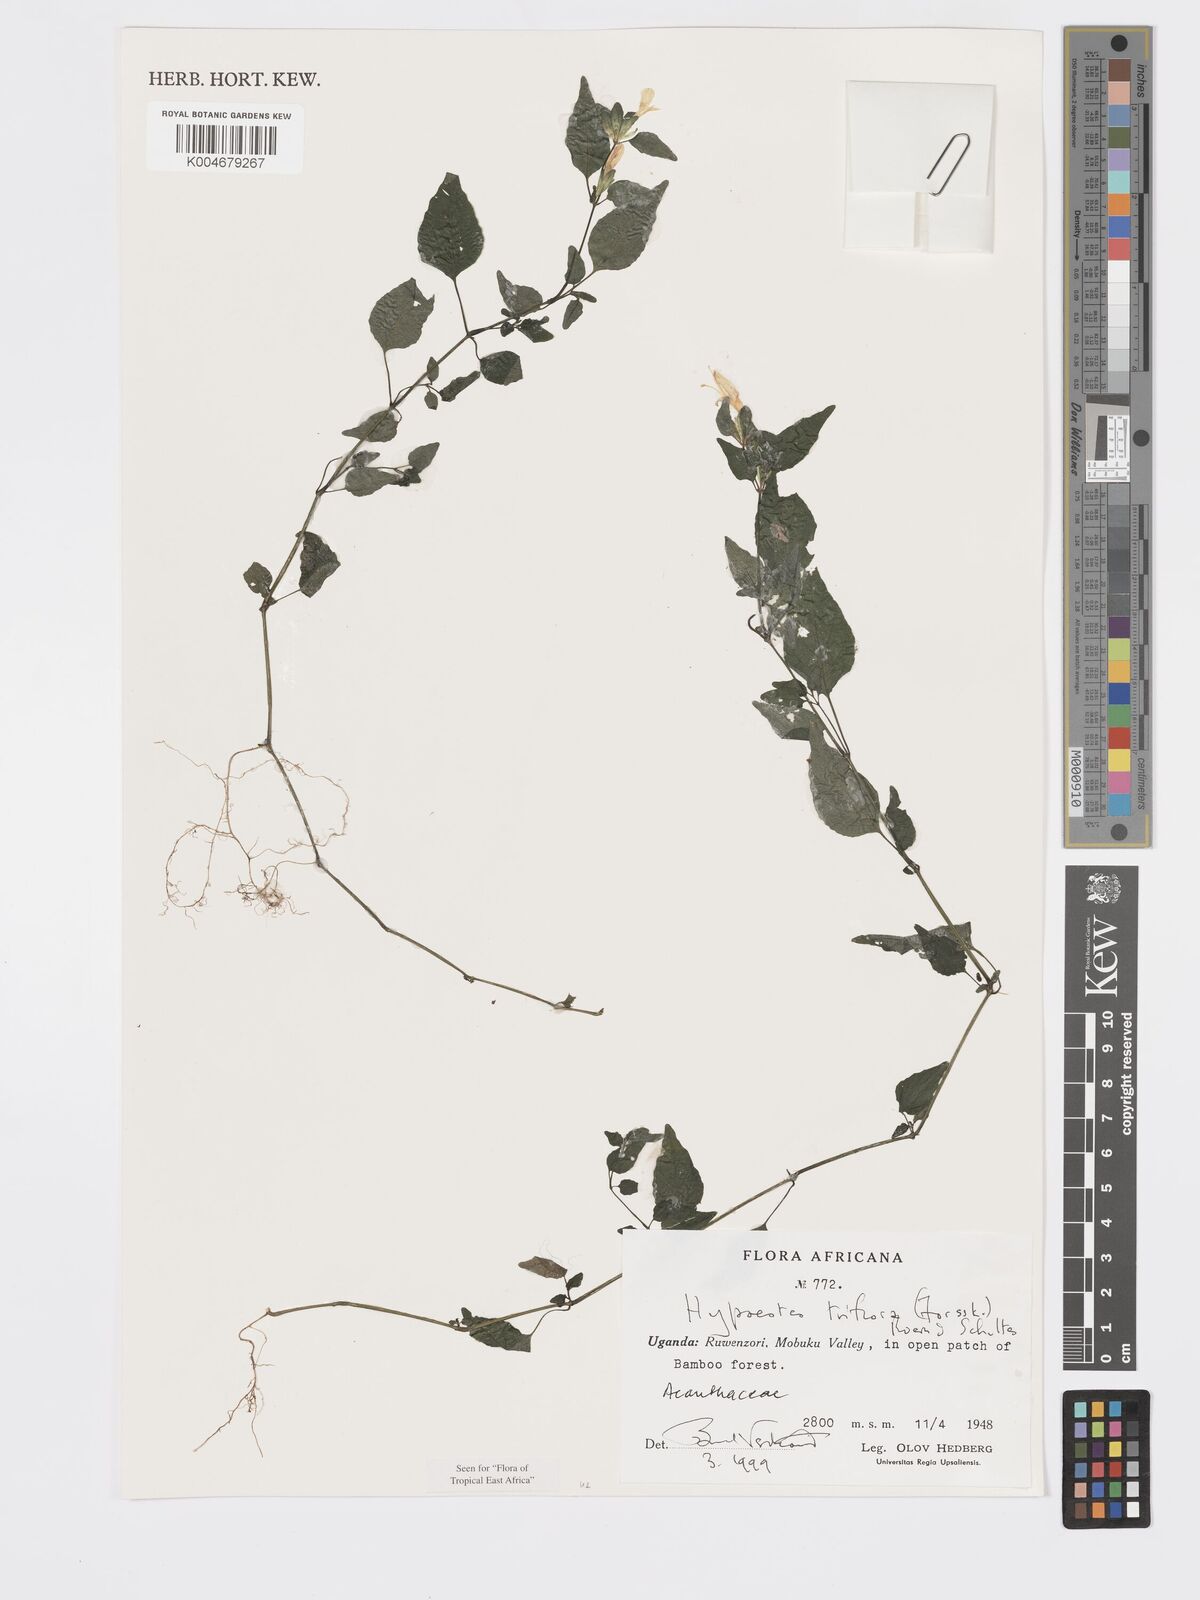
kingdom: Plantae
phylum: Tracheophyta
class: Magnoliopsida
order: Lamiales
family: Acanthaceae
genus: Hypoestes
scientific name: Hypoestes triflora
